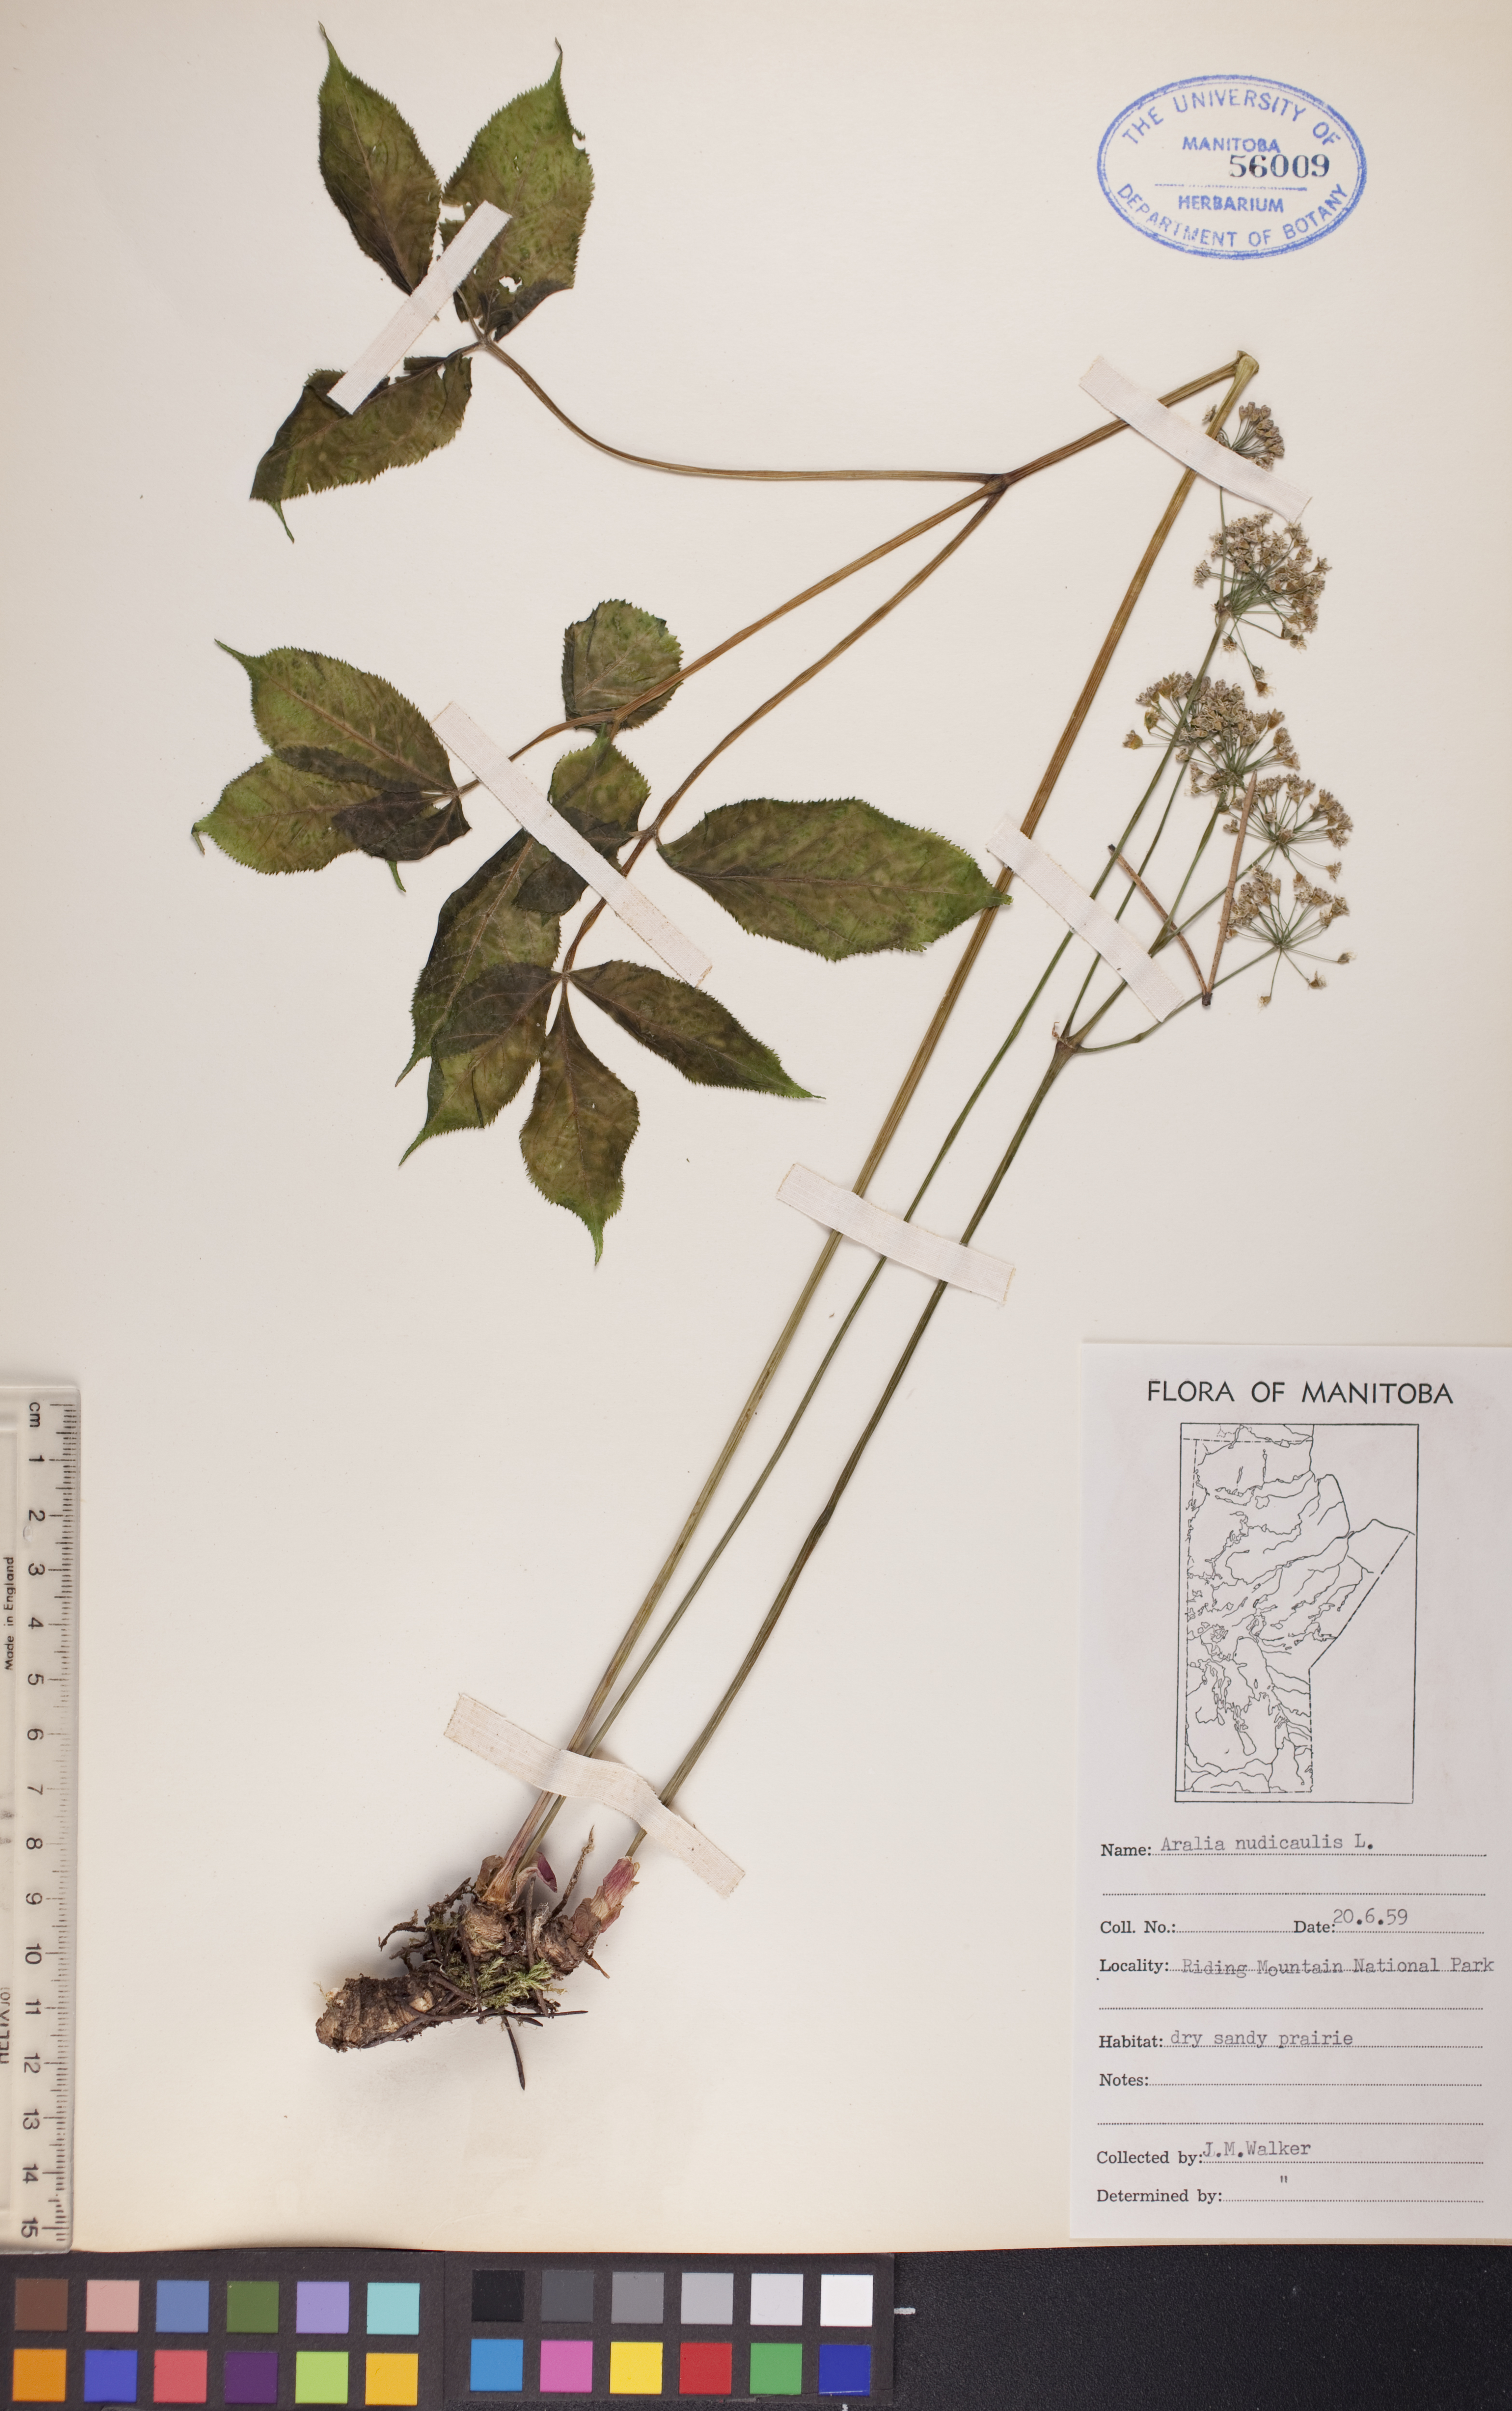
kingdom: Plantae
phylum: Tracheophyta
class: Magnoliopsida
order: Apiales
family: Araliaceae
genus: Aralia
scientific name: Aralia nudicaulis
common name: Wild sarsaparilla
